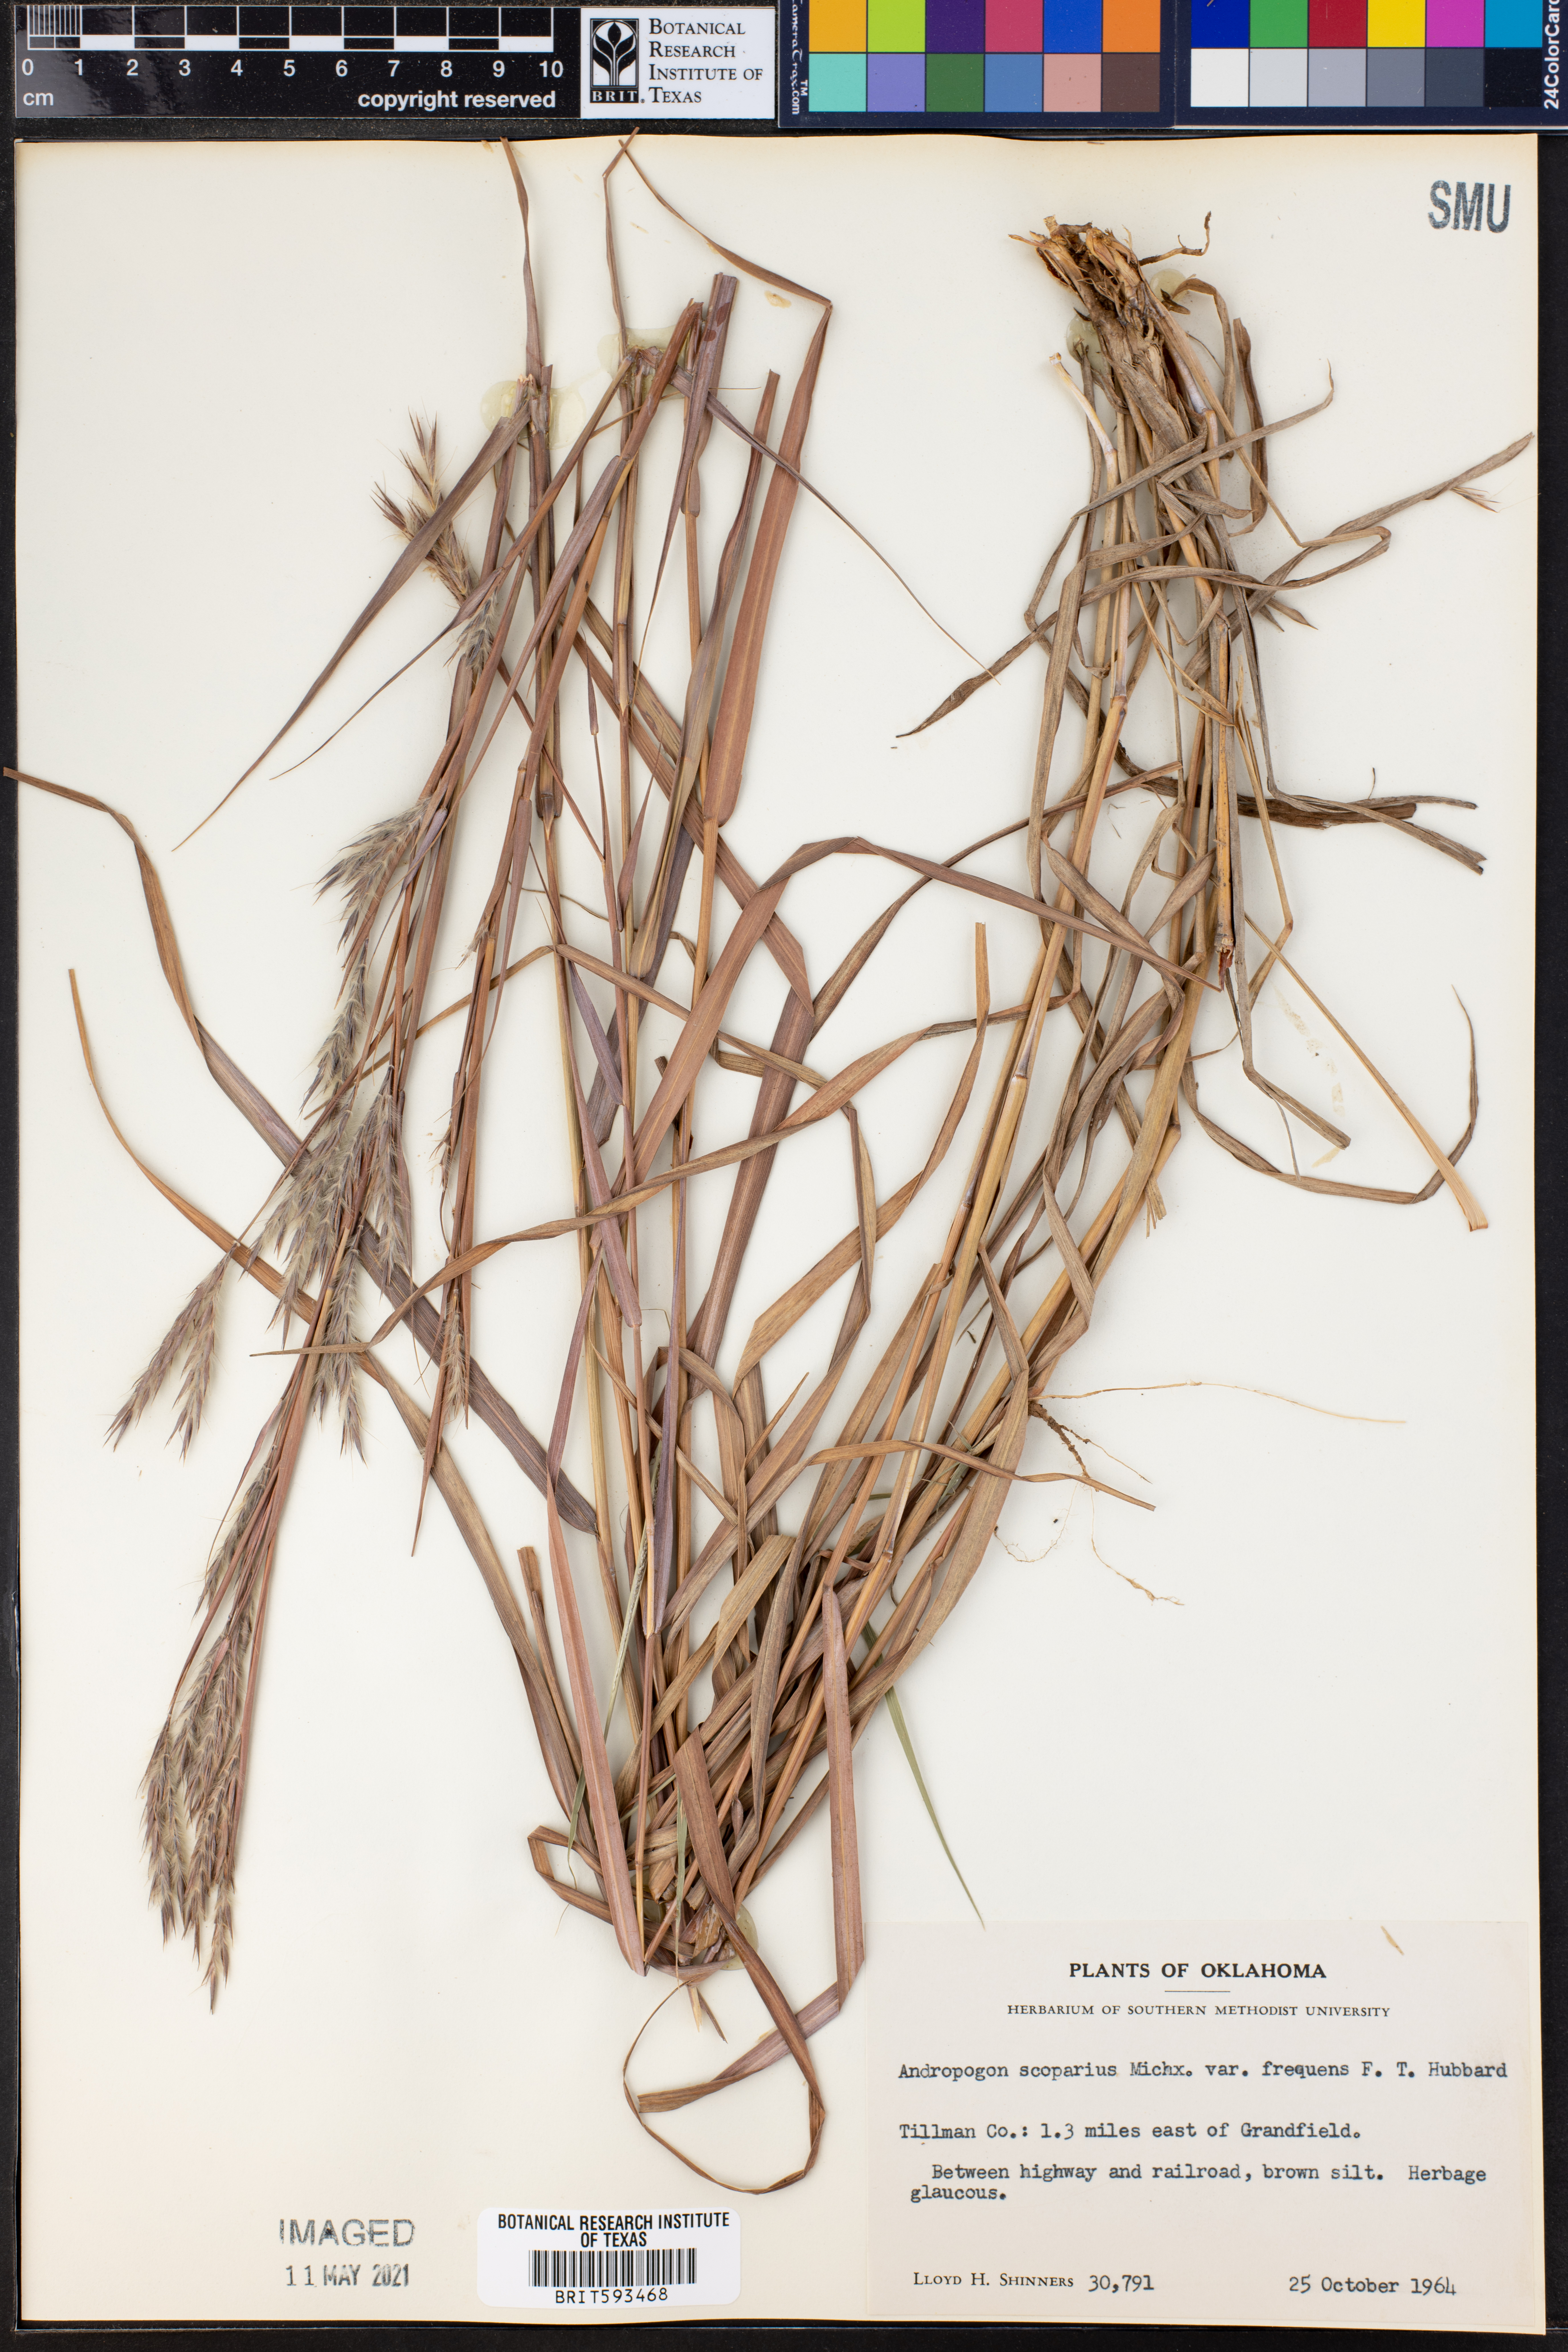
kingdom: Plantae
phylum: Tracheophyta
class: Liliopsida
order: Poales
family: Poaceae
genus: Schizachyrium
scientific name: Schizachyrium scoparium
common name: Little bluestem
